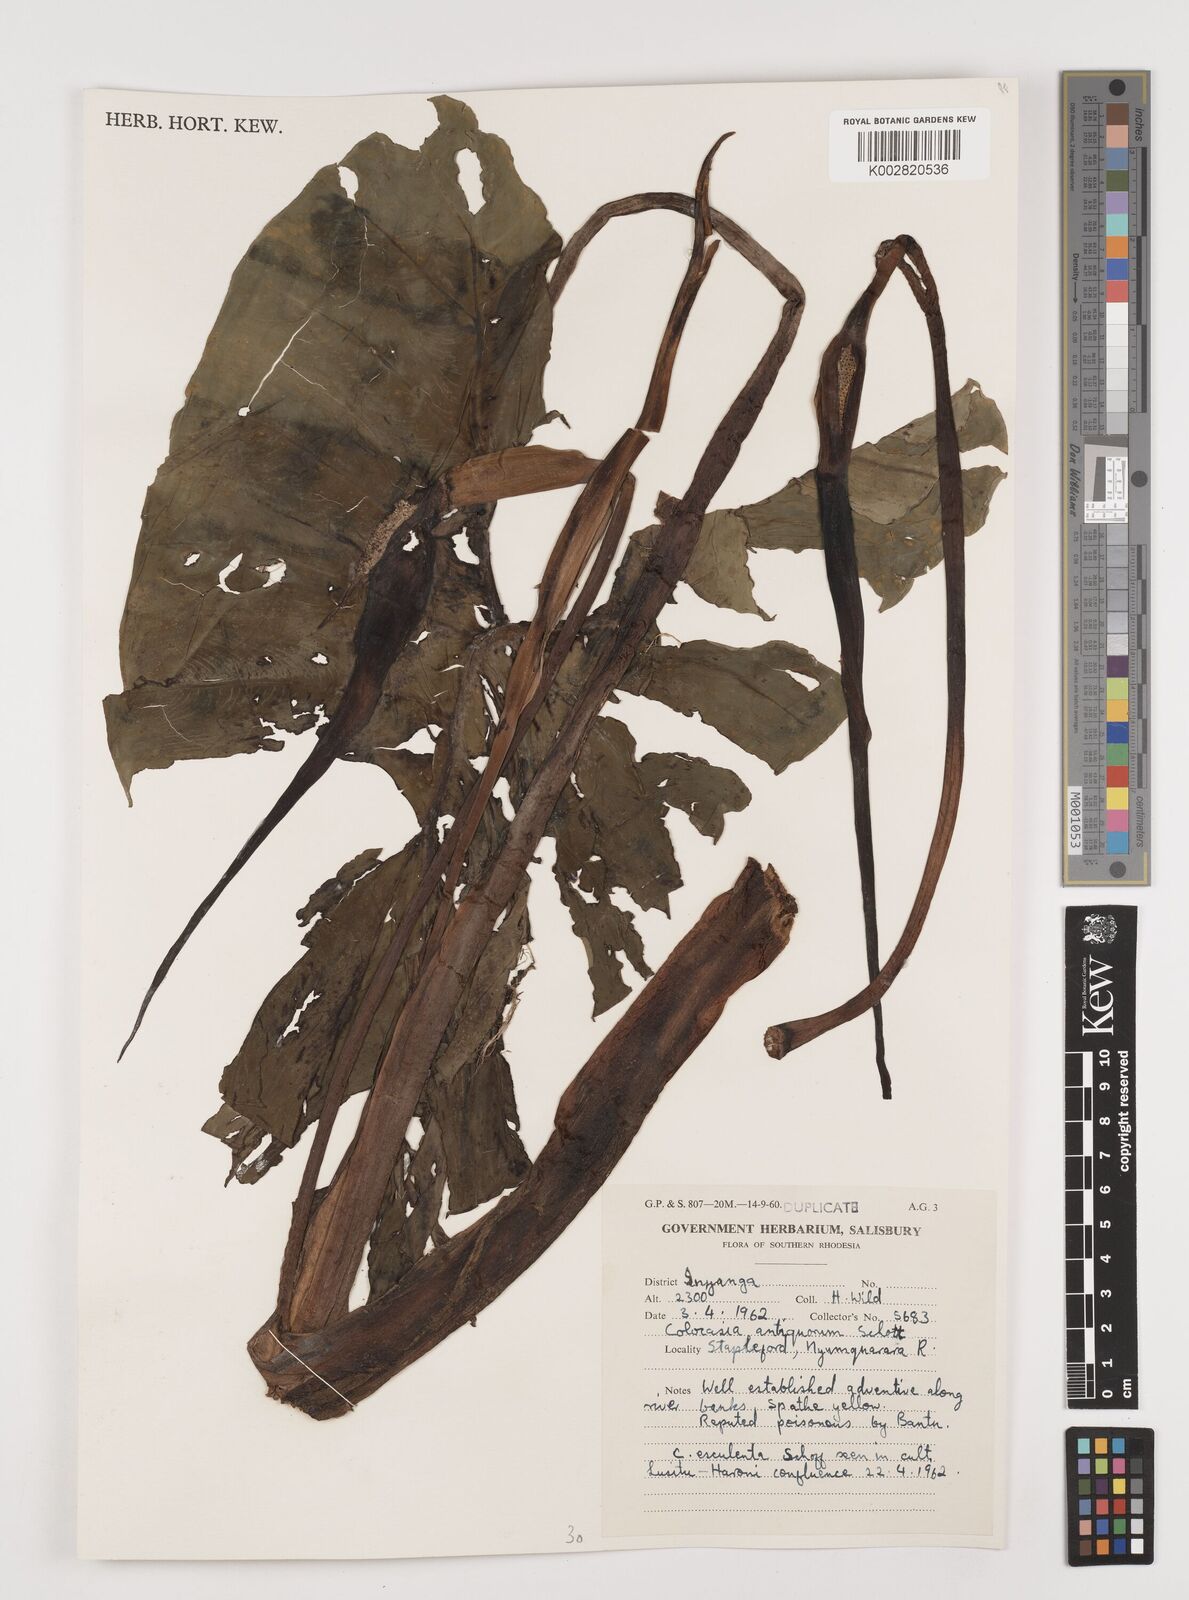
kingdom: Plantae
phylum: Tracheophyta
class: Liliopsida
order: Alismatales
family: Araceae
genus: Colocasia
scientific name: Colocasia esculenta
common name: Taro
